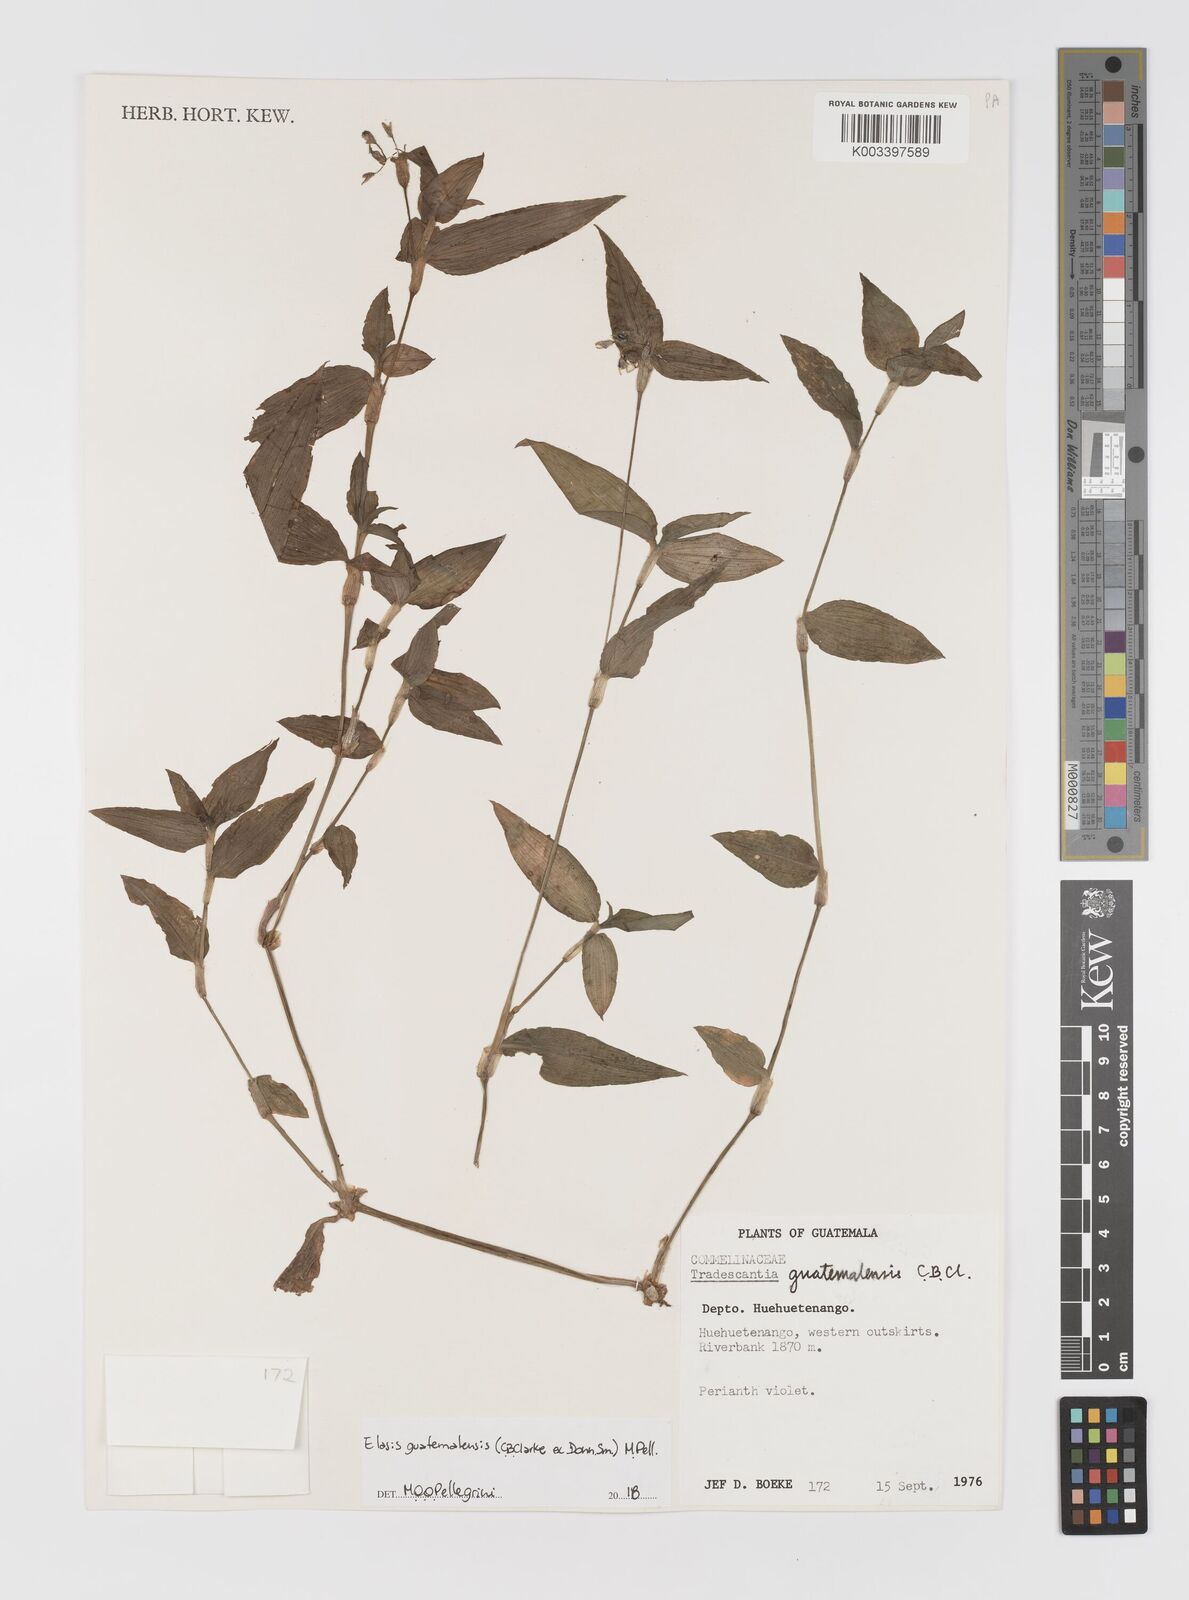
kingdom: Plantae
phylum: Tracheophyta
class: Liliopsida
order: Commelinales
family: Commelinaceae
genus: Elasis
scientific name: Elasis guatemalensis
